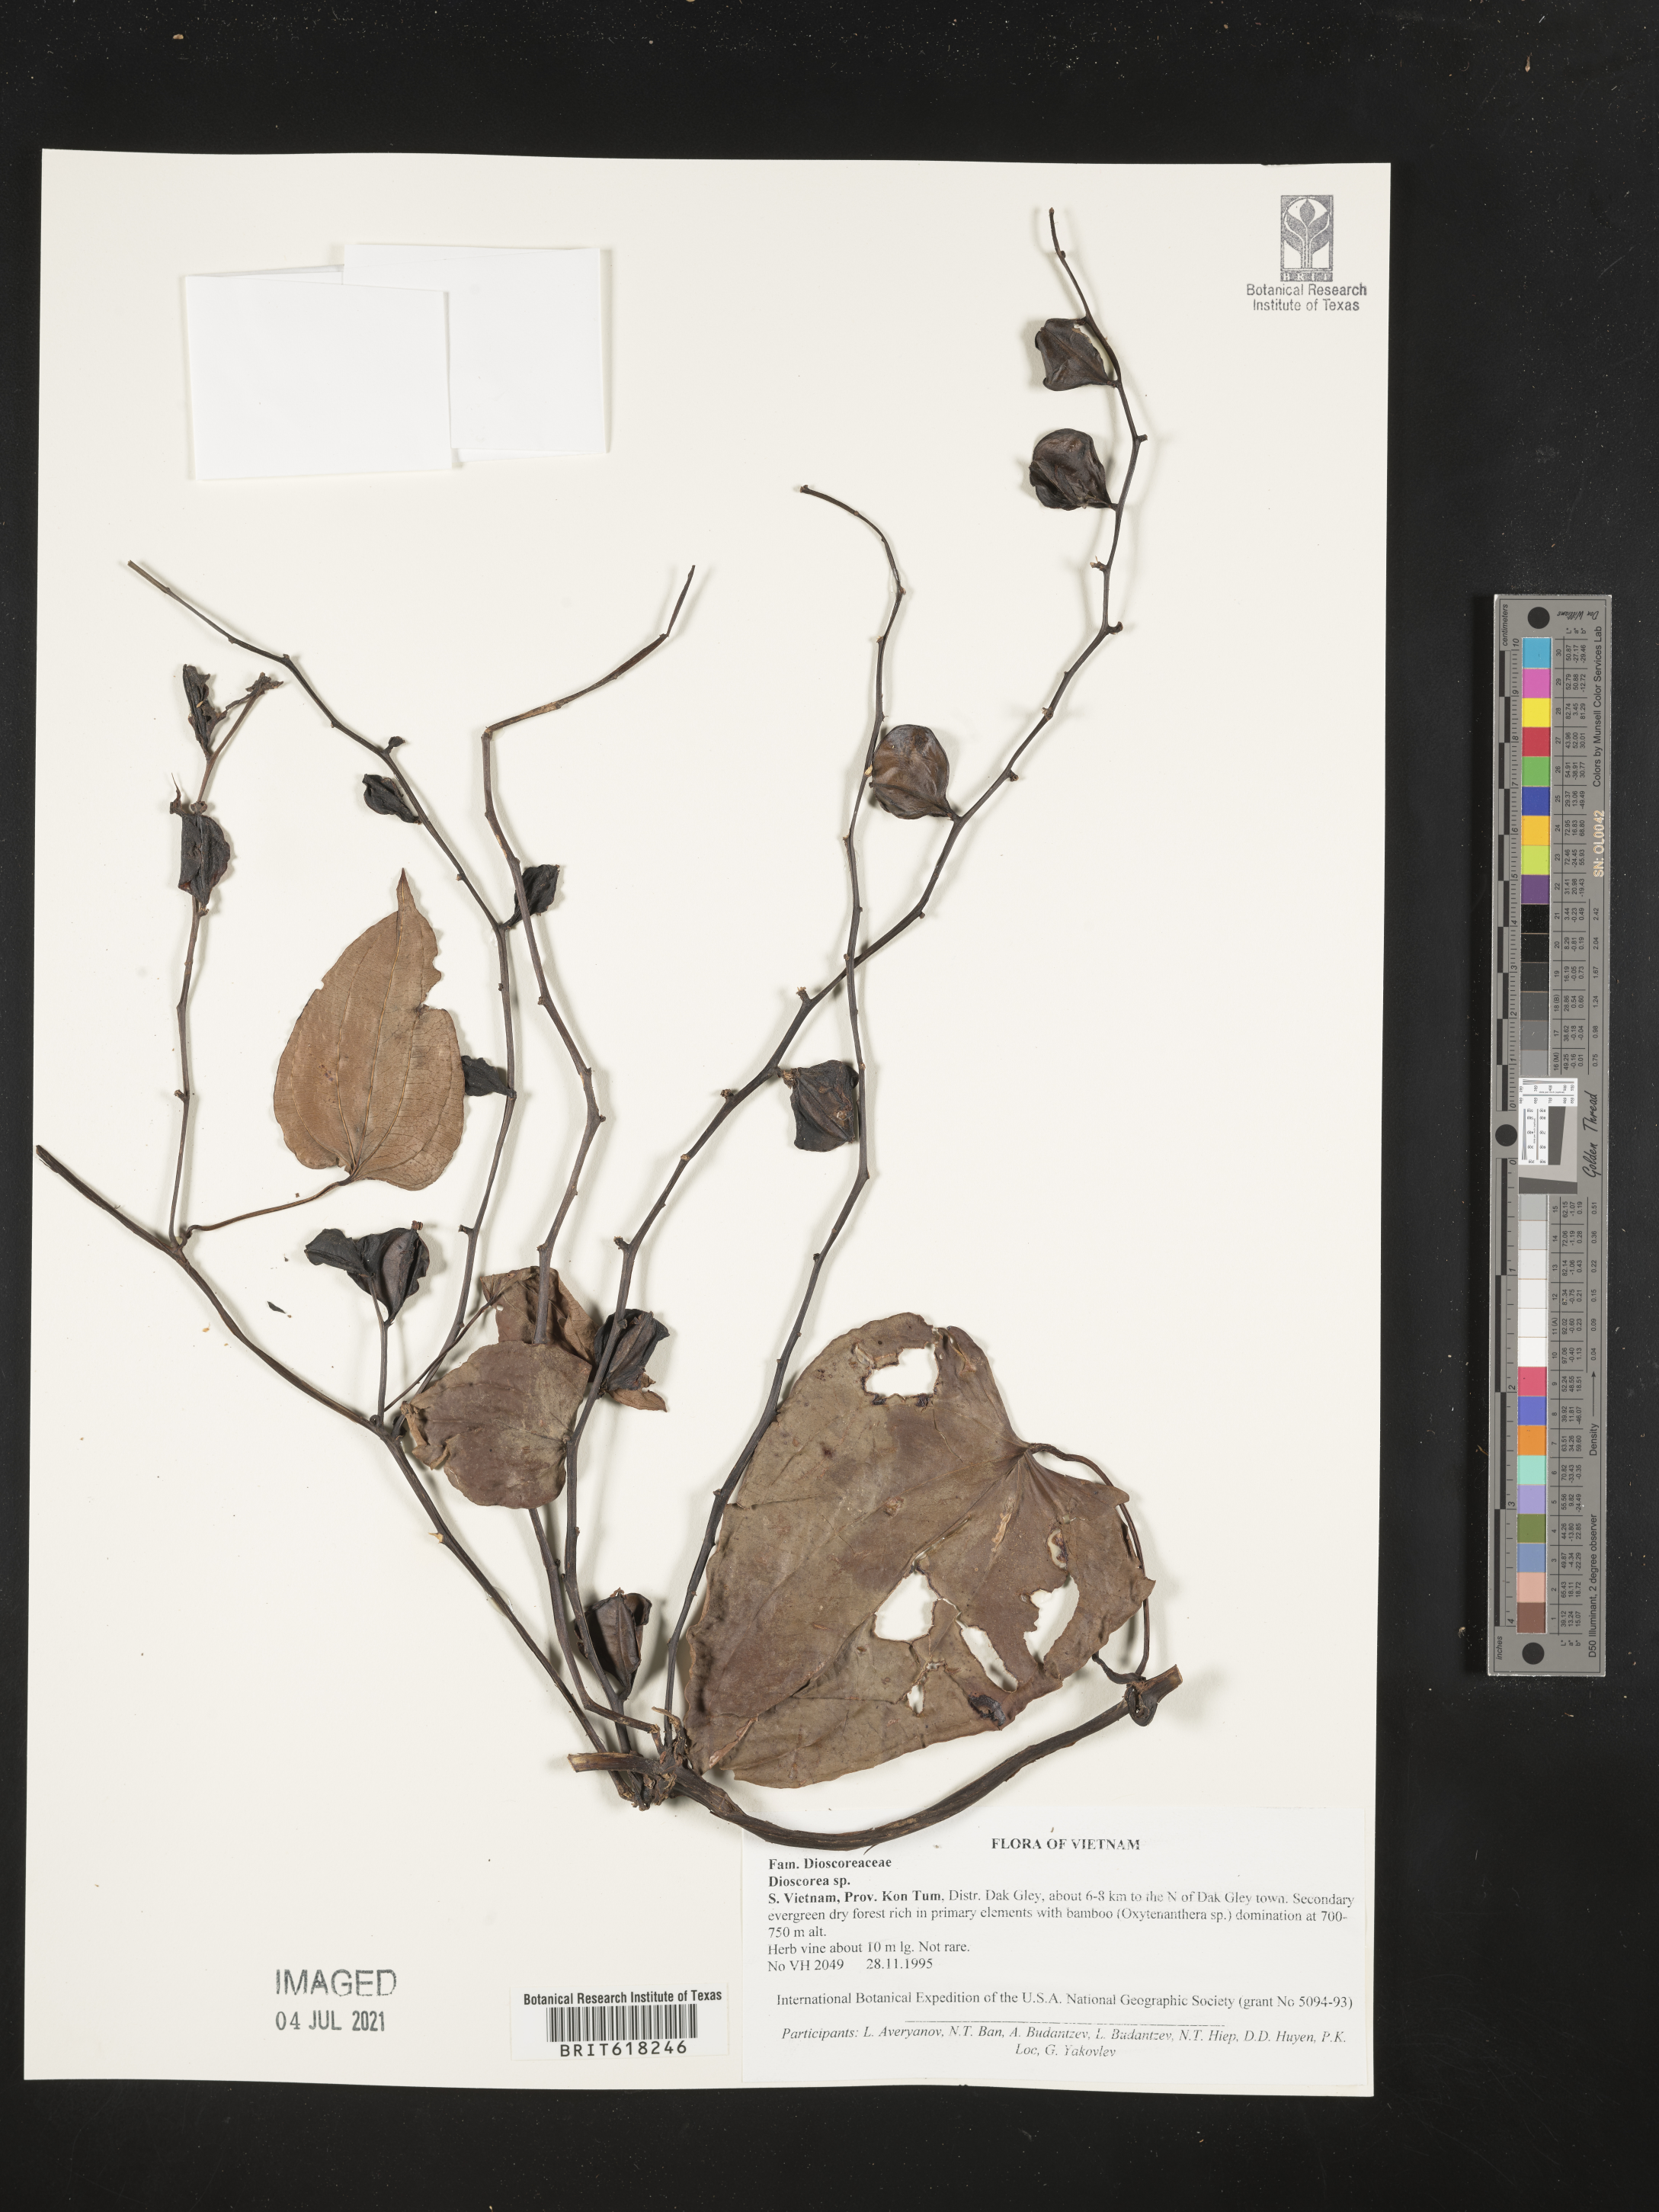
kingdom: Plantae
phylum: Tracheophyta
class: Liliopsida
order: Dioscoreales
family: Dioscoreaceae
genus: Dioscorea
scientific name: Dioscorea
